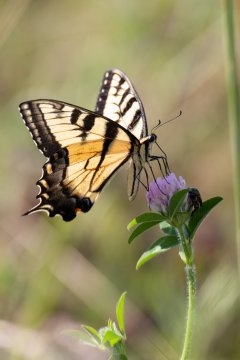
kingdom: Animalia
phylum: Arthropoda
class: Insecta
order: Lepidoptera
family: Papilionidae
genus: Pterourus
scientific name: Pterourus glaucus
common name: Eastern Tiger Swallowtail
